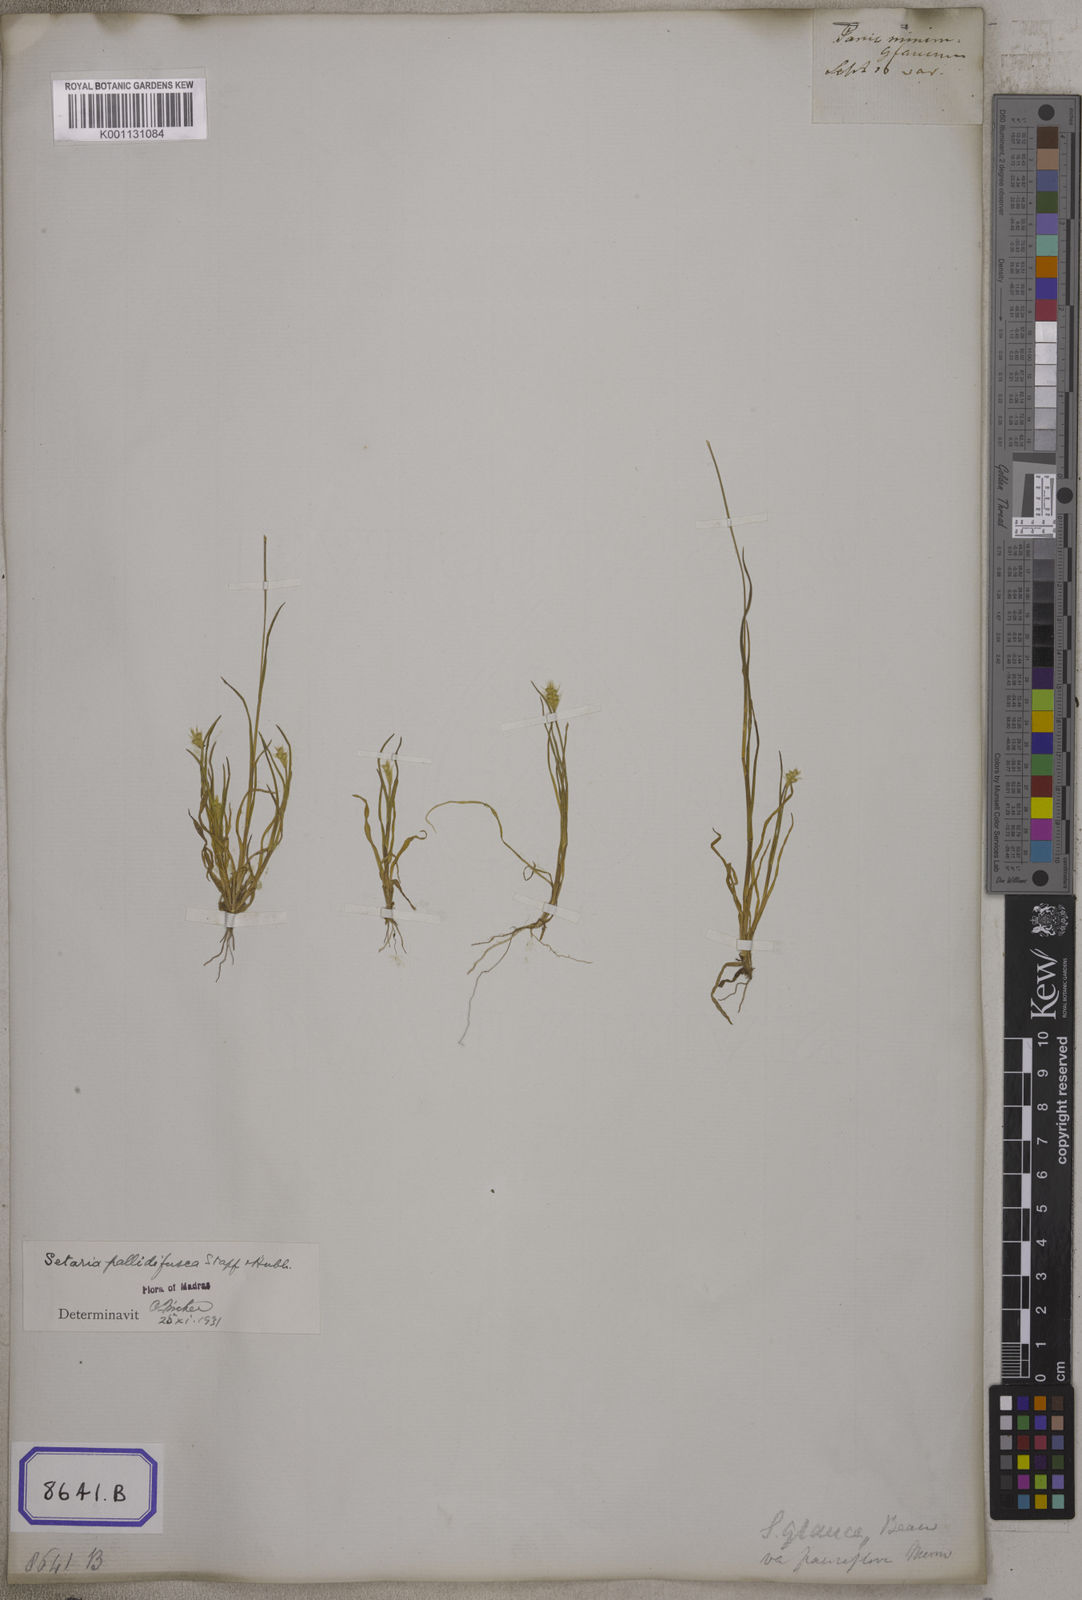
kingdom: Plantae
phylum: Tracheophyta
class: Liliopsida
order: Poales
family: Poaceae
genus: Setaria
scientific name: Setaria parviflora
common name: Knotroot bristle-grass
